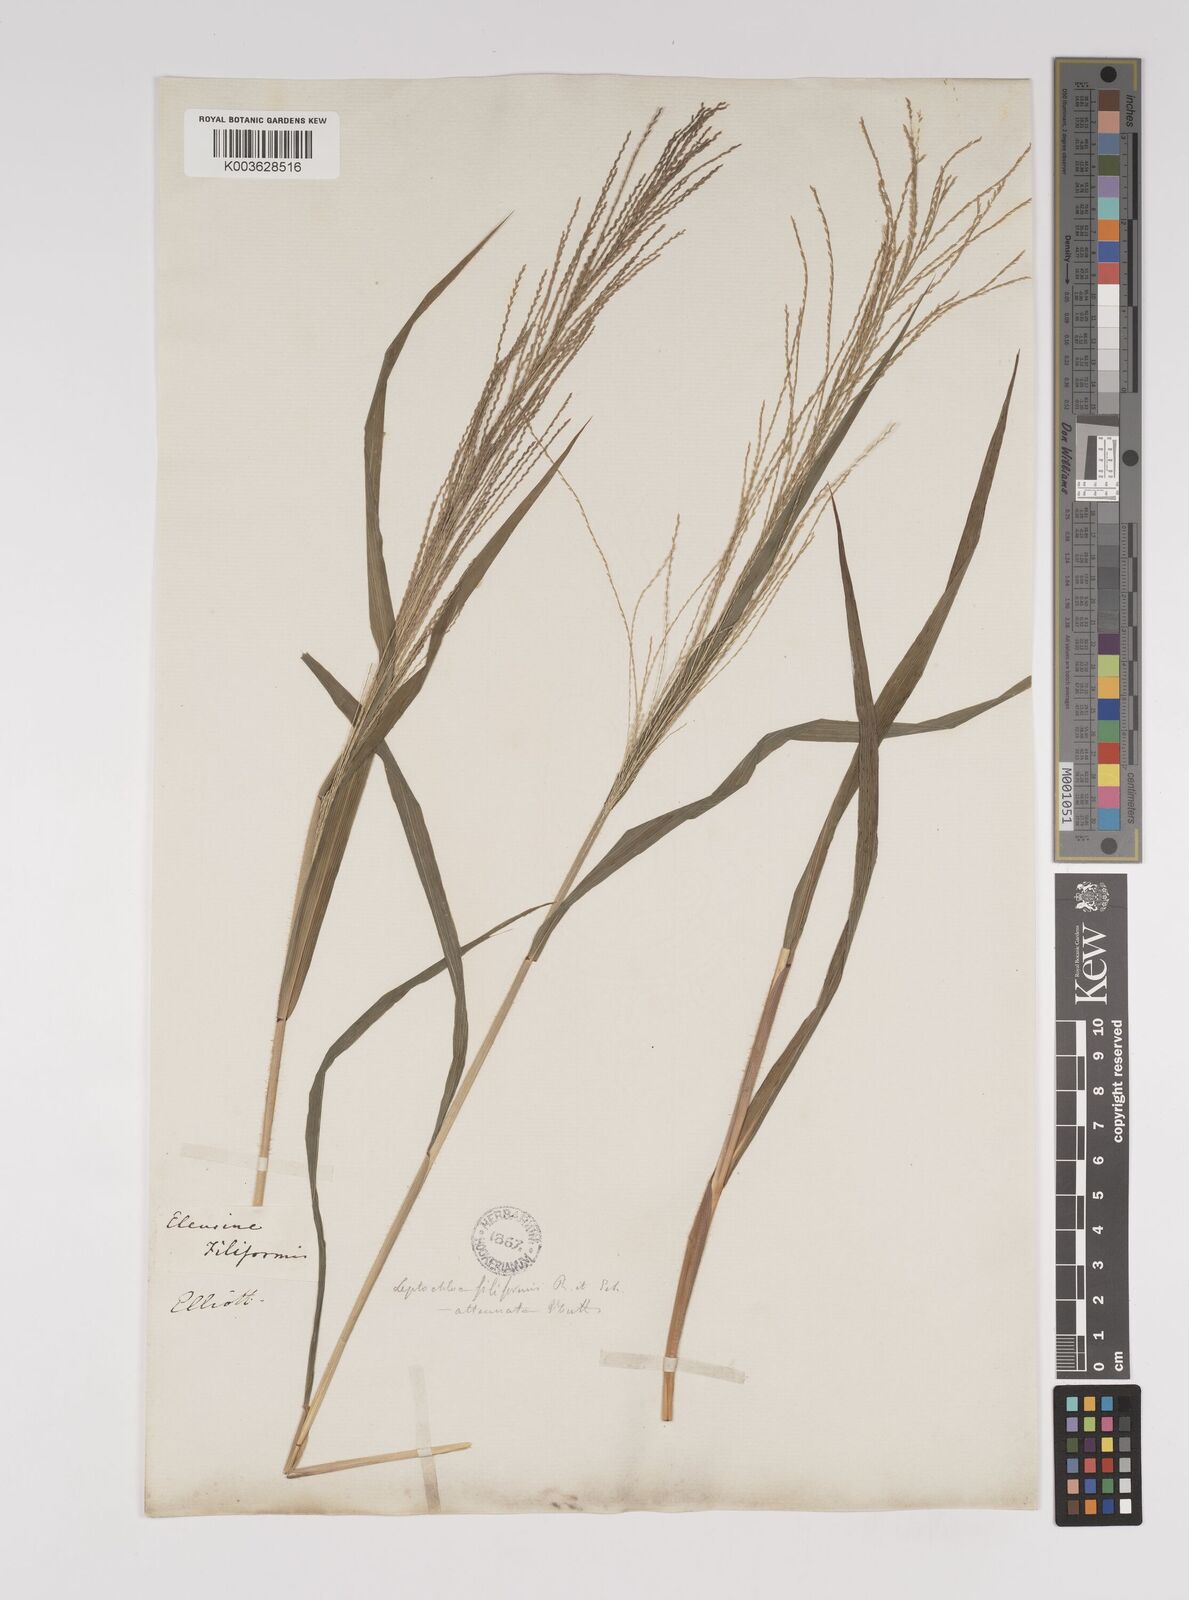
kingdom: Plantae
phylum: Tracheophyta
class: Liliopsida
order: Poales
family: Poaceae
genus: Leptochloa
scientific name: Leptochloa panicea
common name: Mucronate sprangletop
